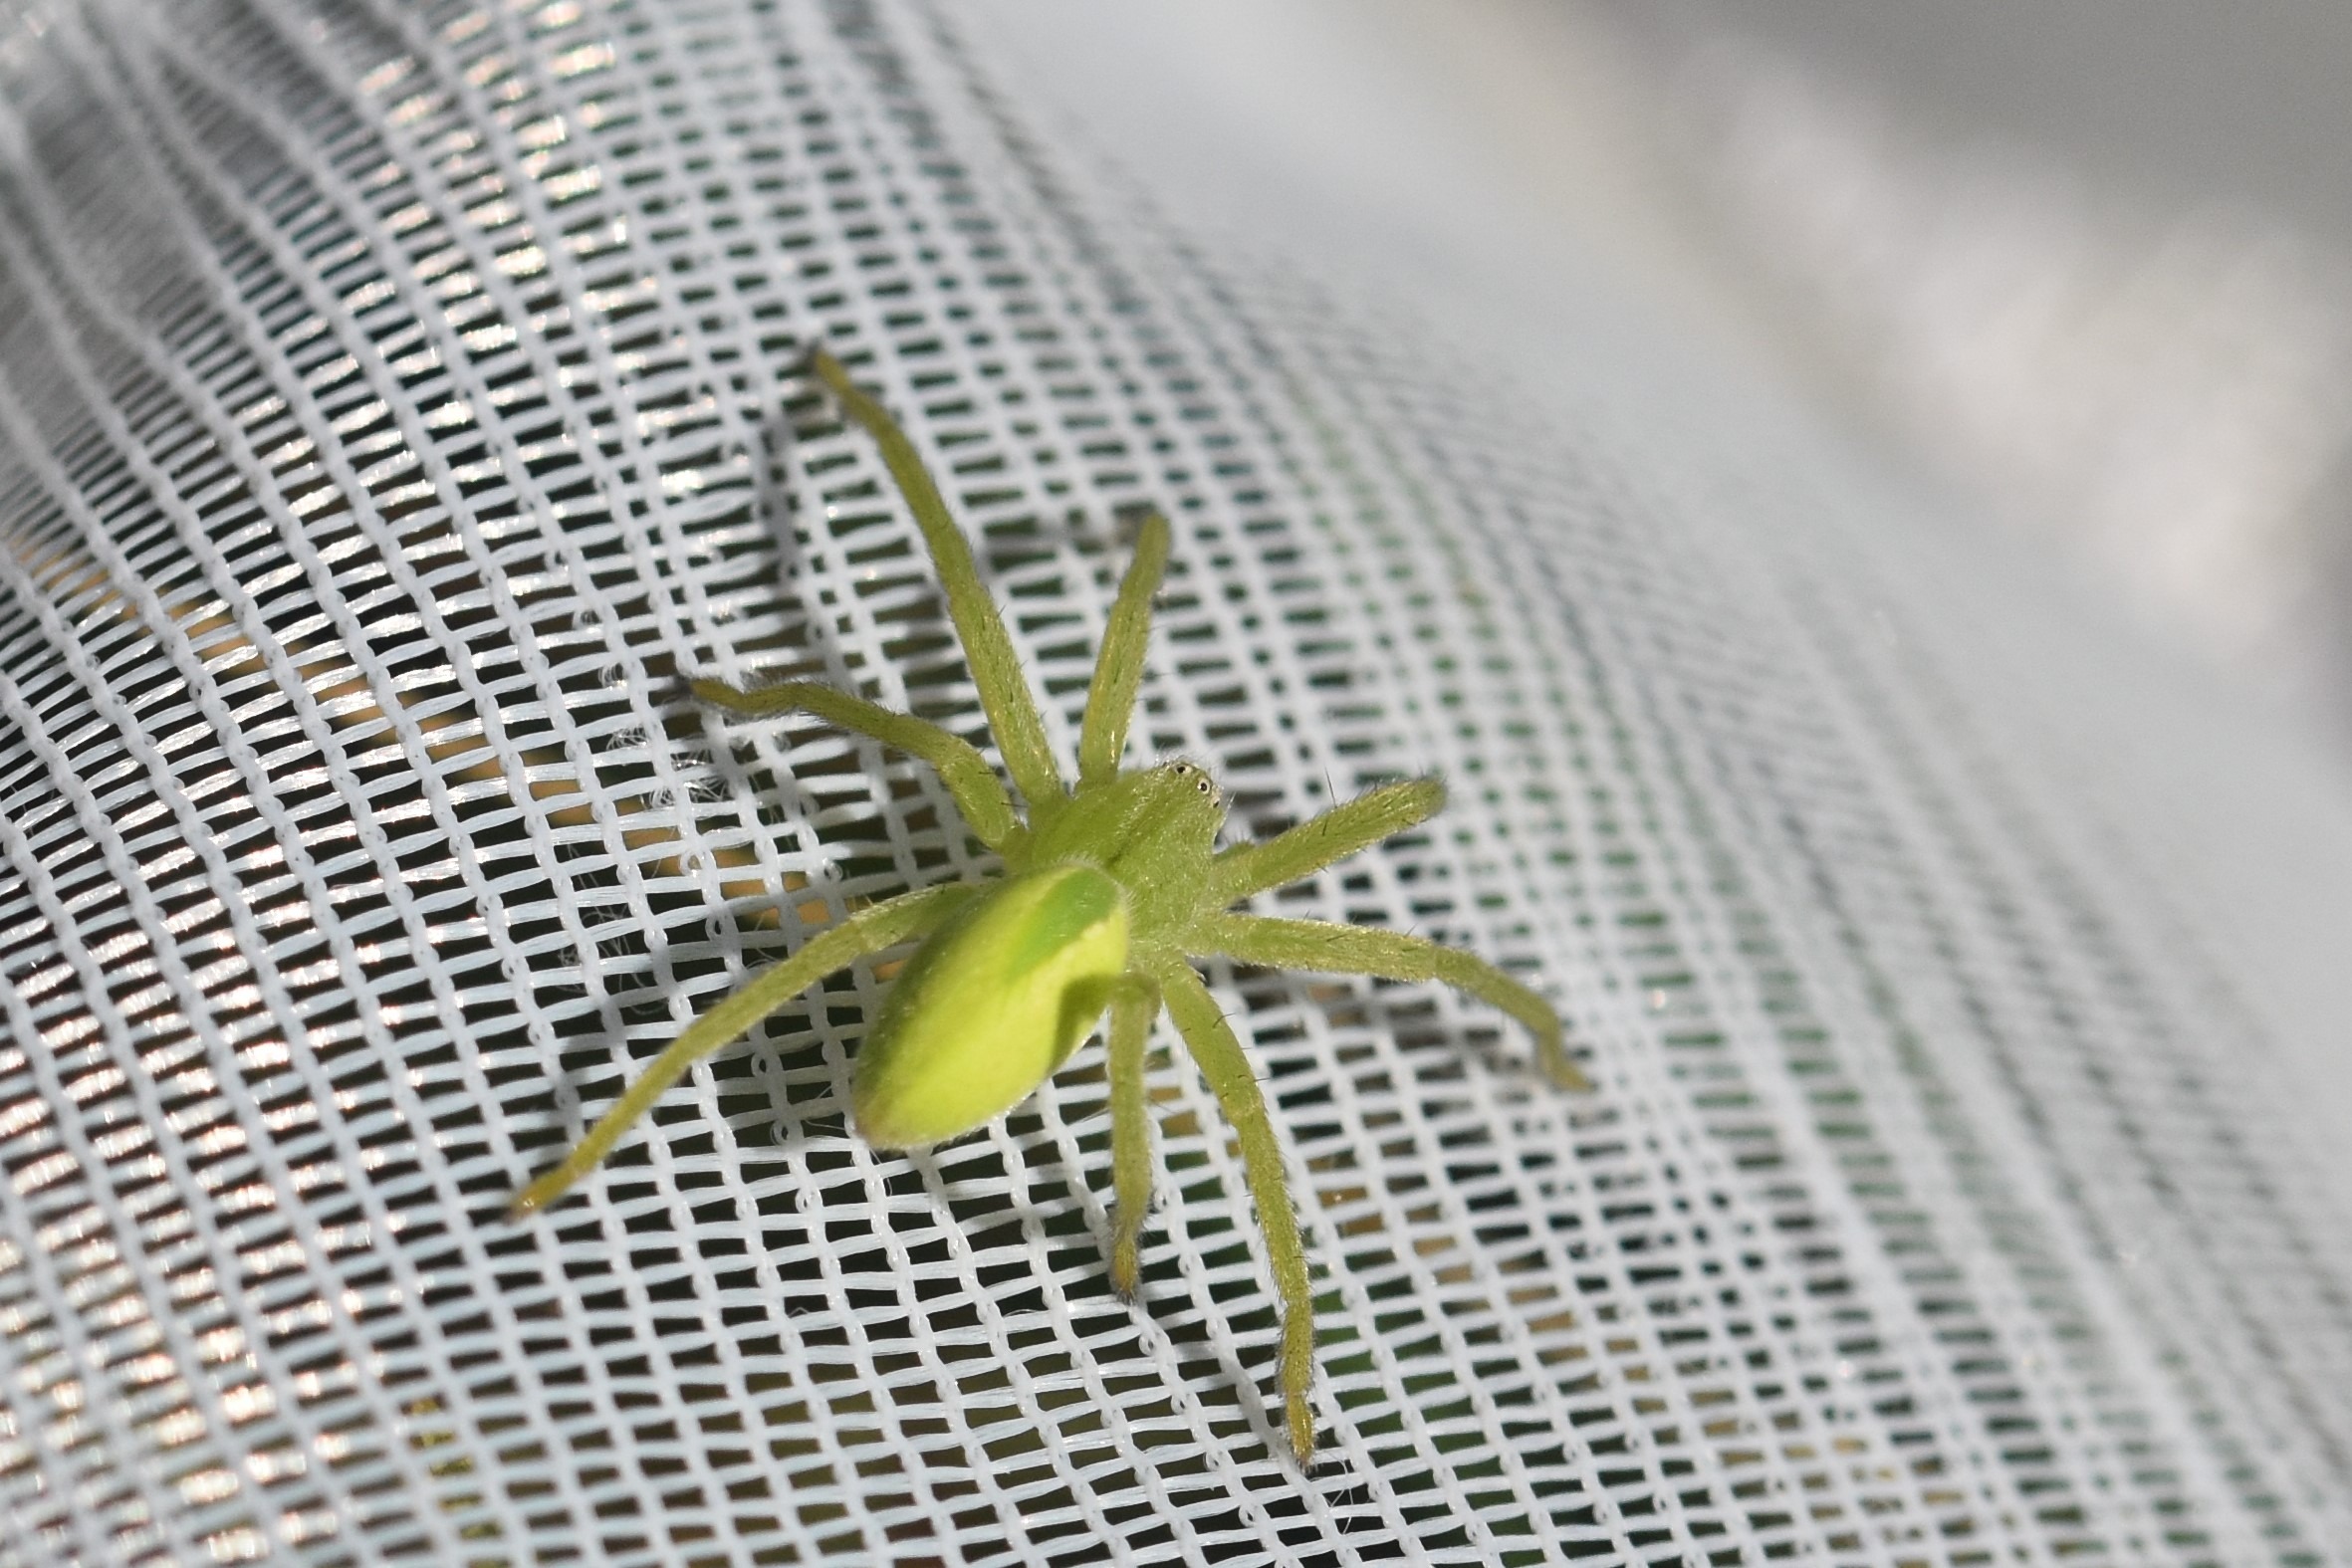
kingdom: Animalia
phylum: Arthropoda
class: Arachnida
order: Araneae
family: Sparassidae
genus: Micrommata
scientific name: Micrommata virescens
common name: Smaragdedderkop
